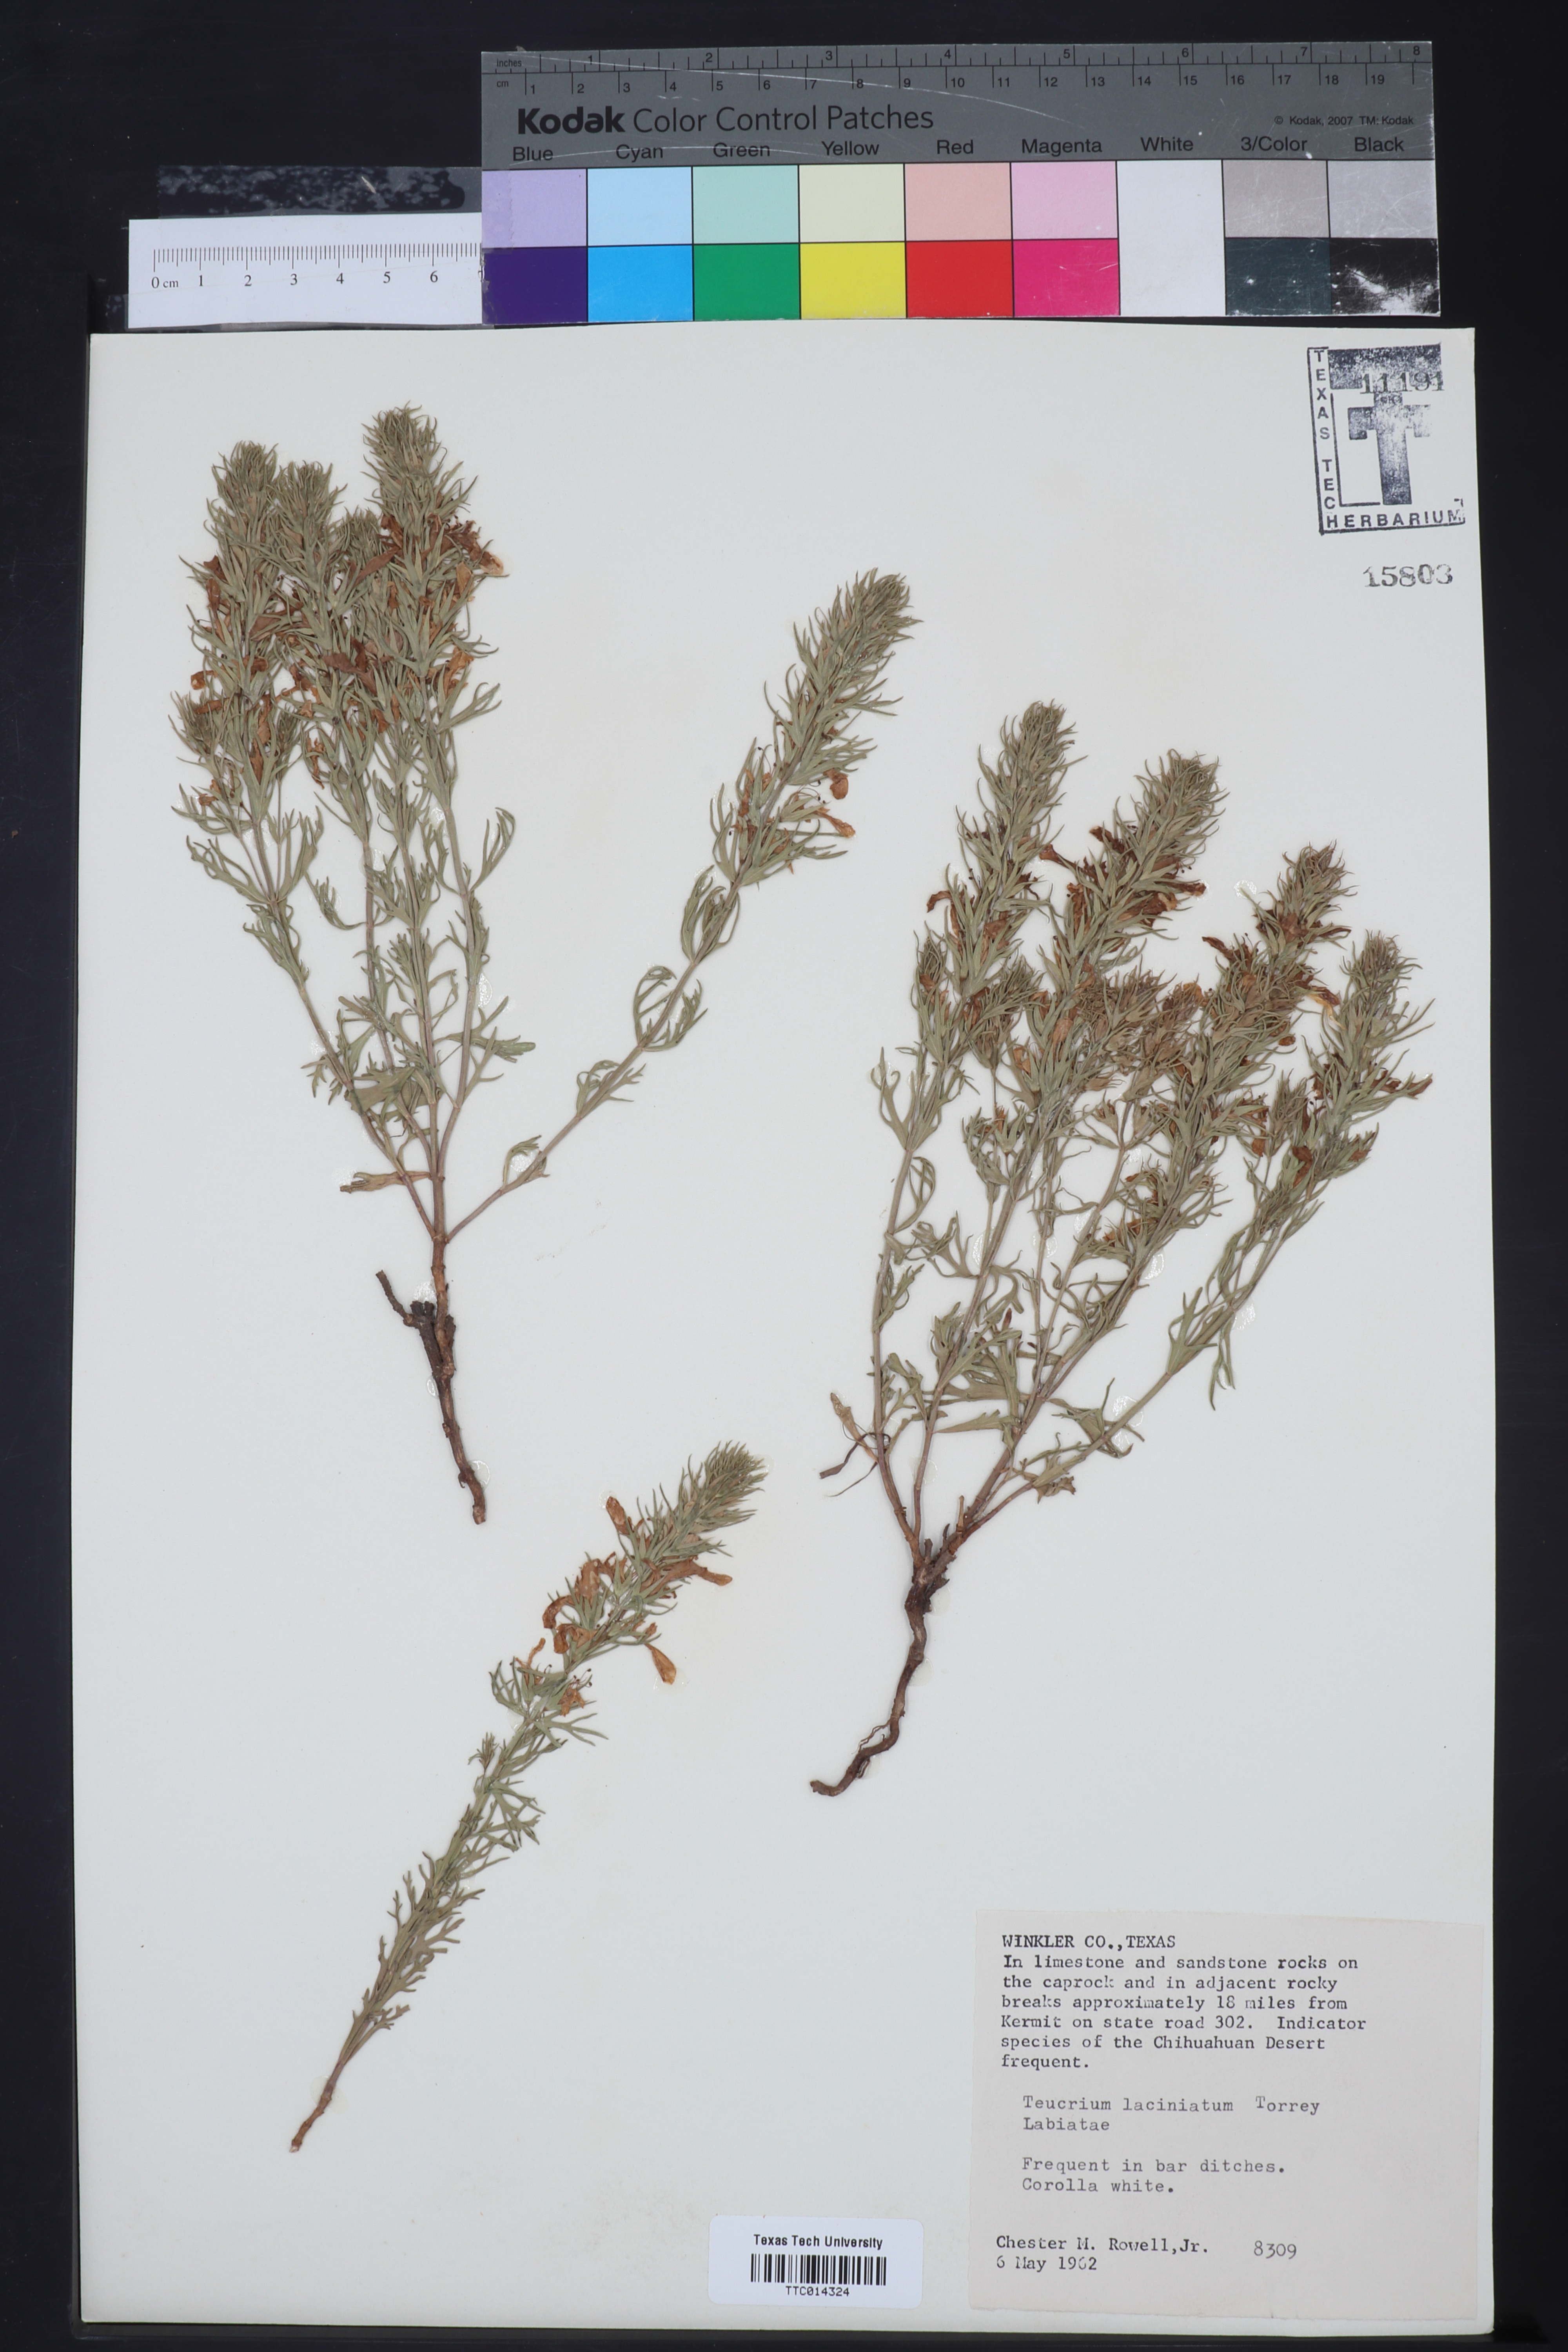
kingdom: Plantae
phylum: Tracheophyta
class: Magnoliopsida
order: Lamiales
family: Lamiaceae
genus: Teucrium
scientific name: Teucrium laciniatum
